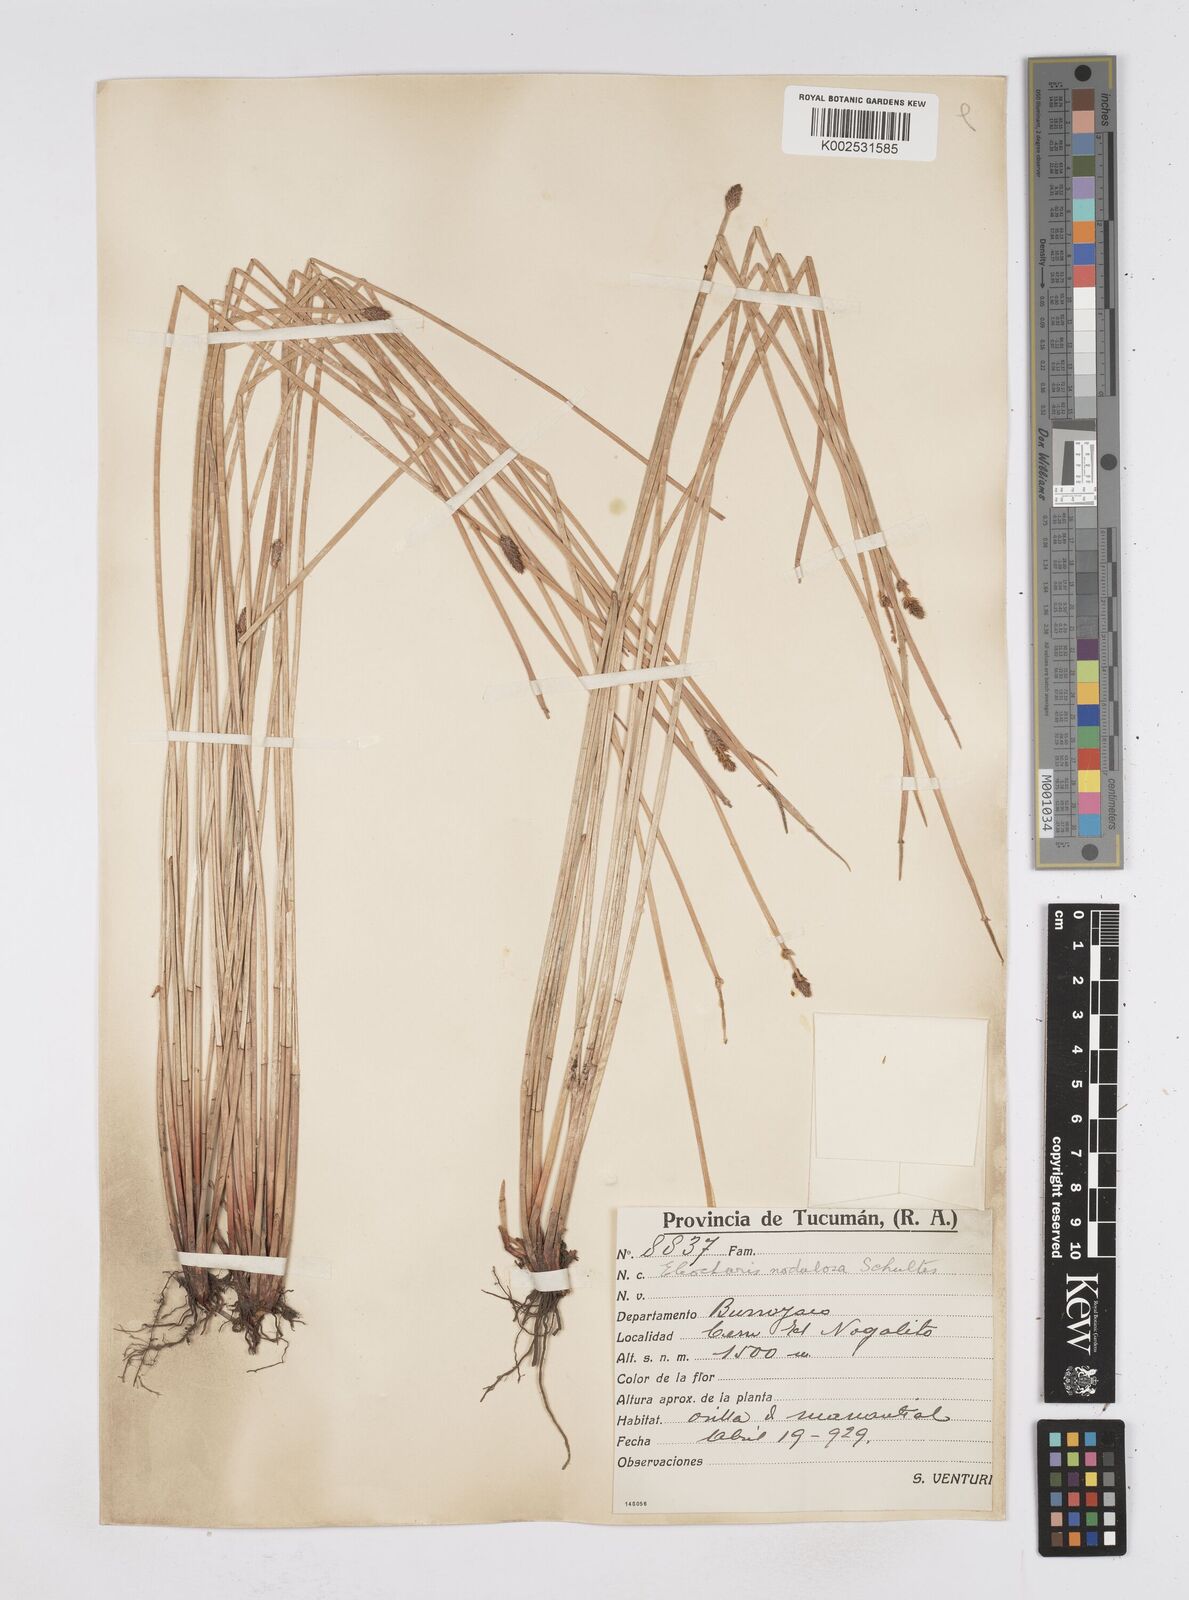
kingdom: Plantae
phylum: Tracheophyta
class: Liliopsida
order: Poales
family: Cyperaceae
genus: Eleocharis
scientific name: Eleocharis montana
